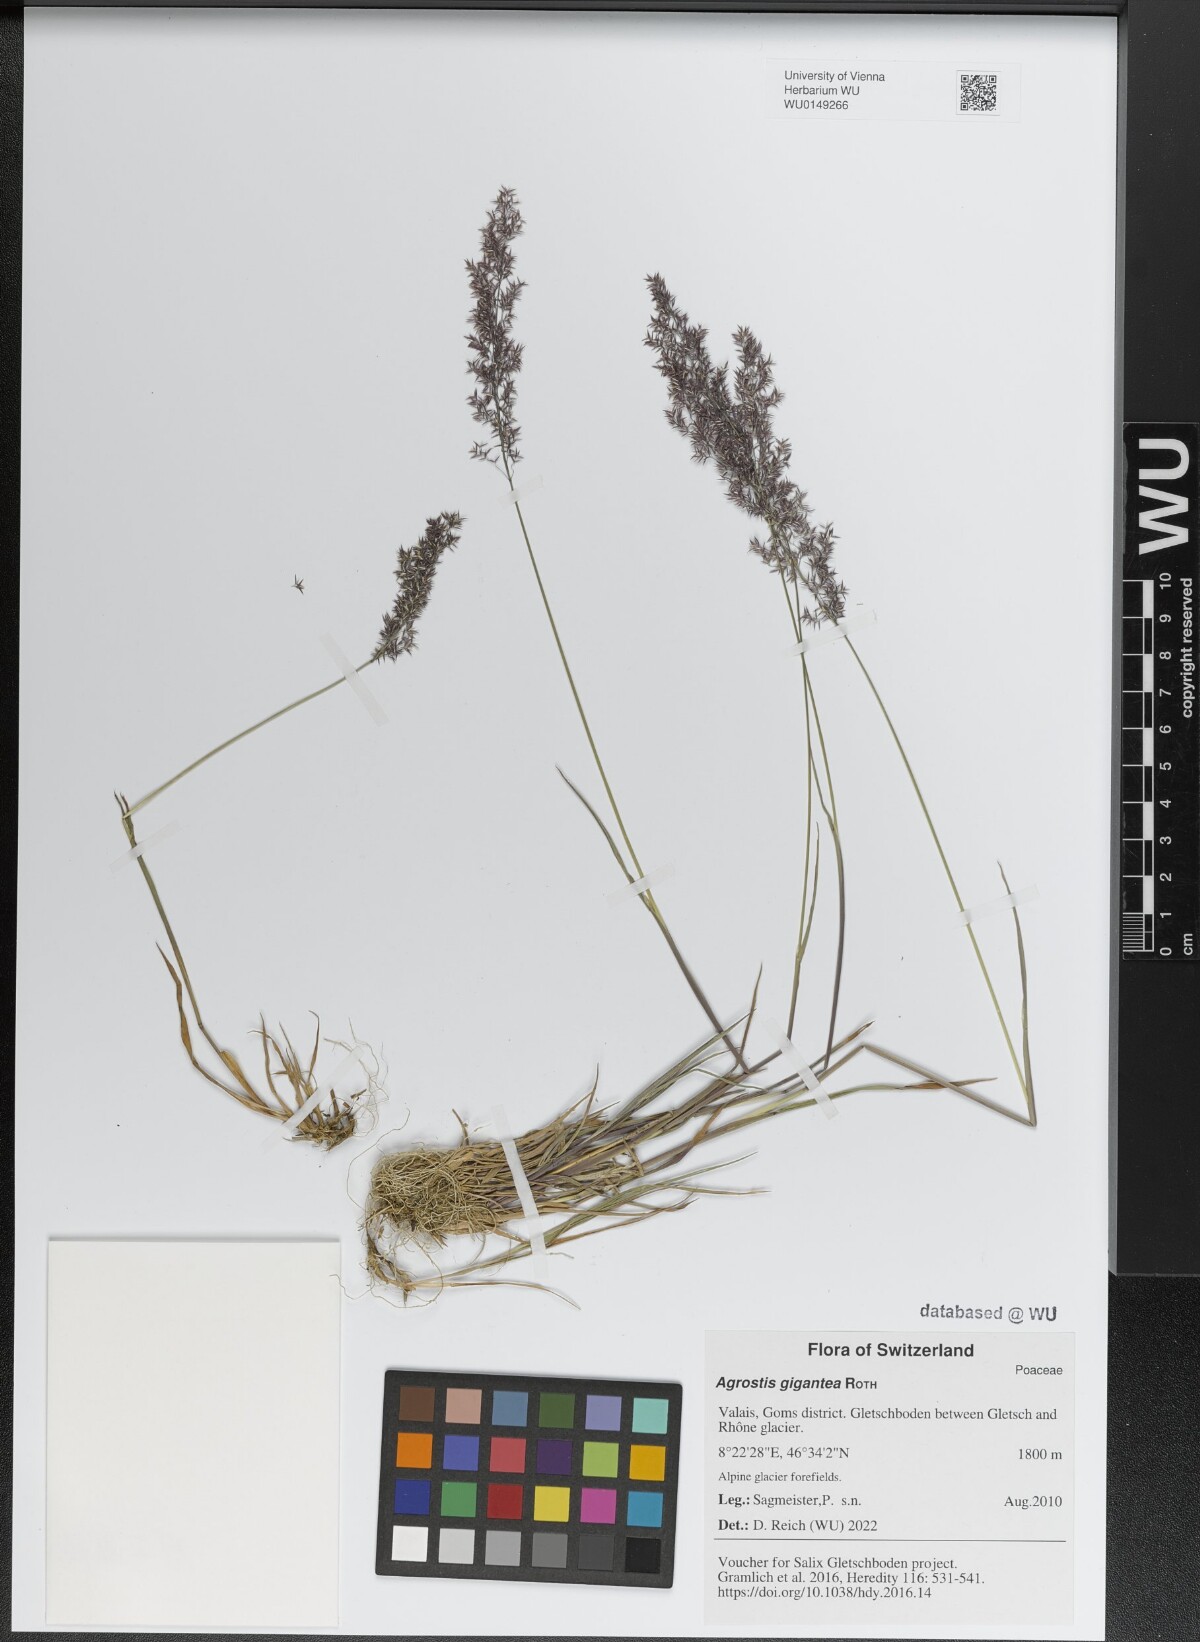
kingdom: Plantae
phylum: Tracheophyta
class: Liliopsida
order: Poales
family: Poaceae
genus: Agrostis
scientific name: Agrostis gigantea
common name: Black bent
